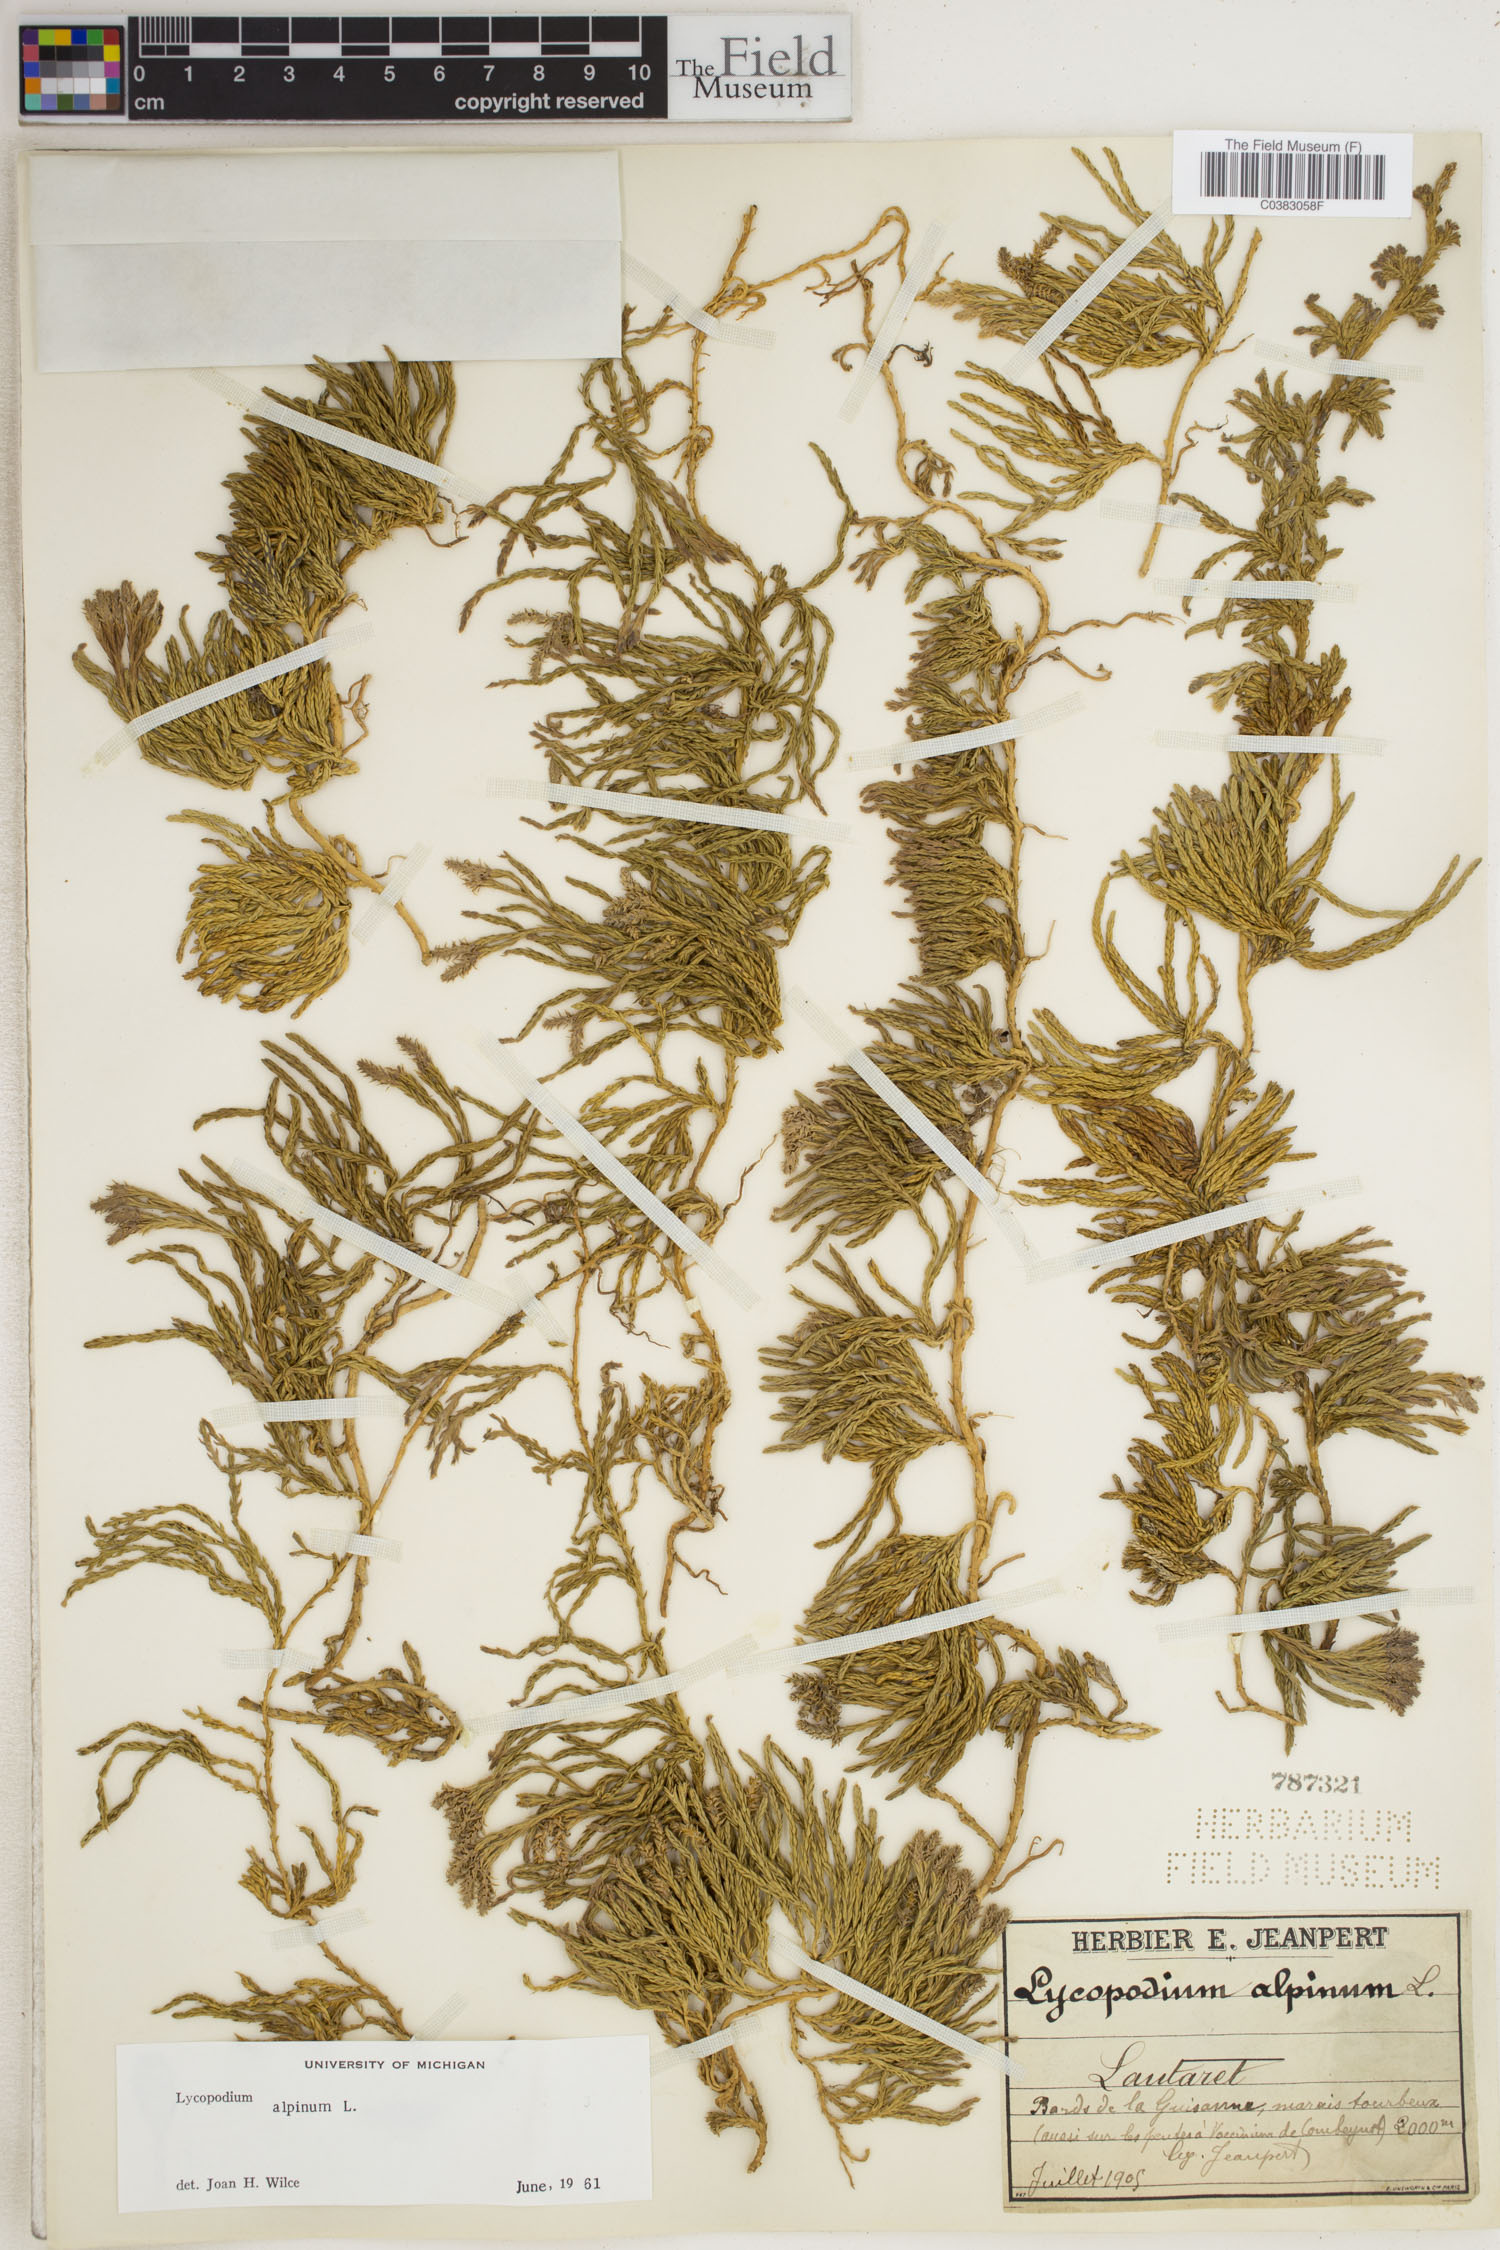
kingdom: Plantae
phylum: Tracheophyta
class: Lycopodiopsida
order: Lycopodiales
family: Lycopodiaceae
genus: Diphasiastrum
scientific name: Diphasiastrum alpinum
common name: Alpine clubmoss
